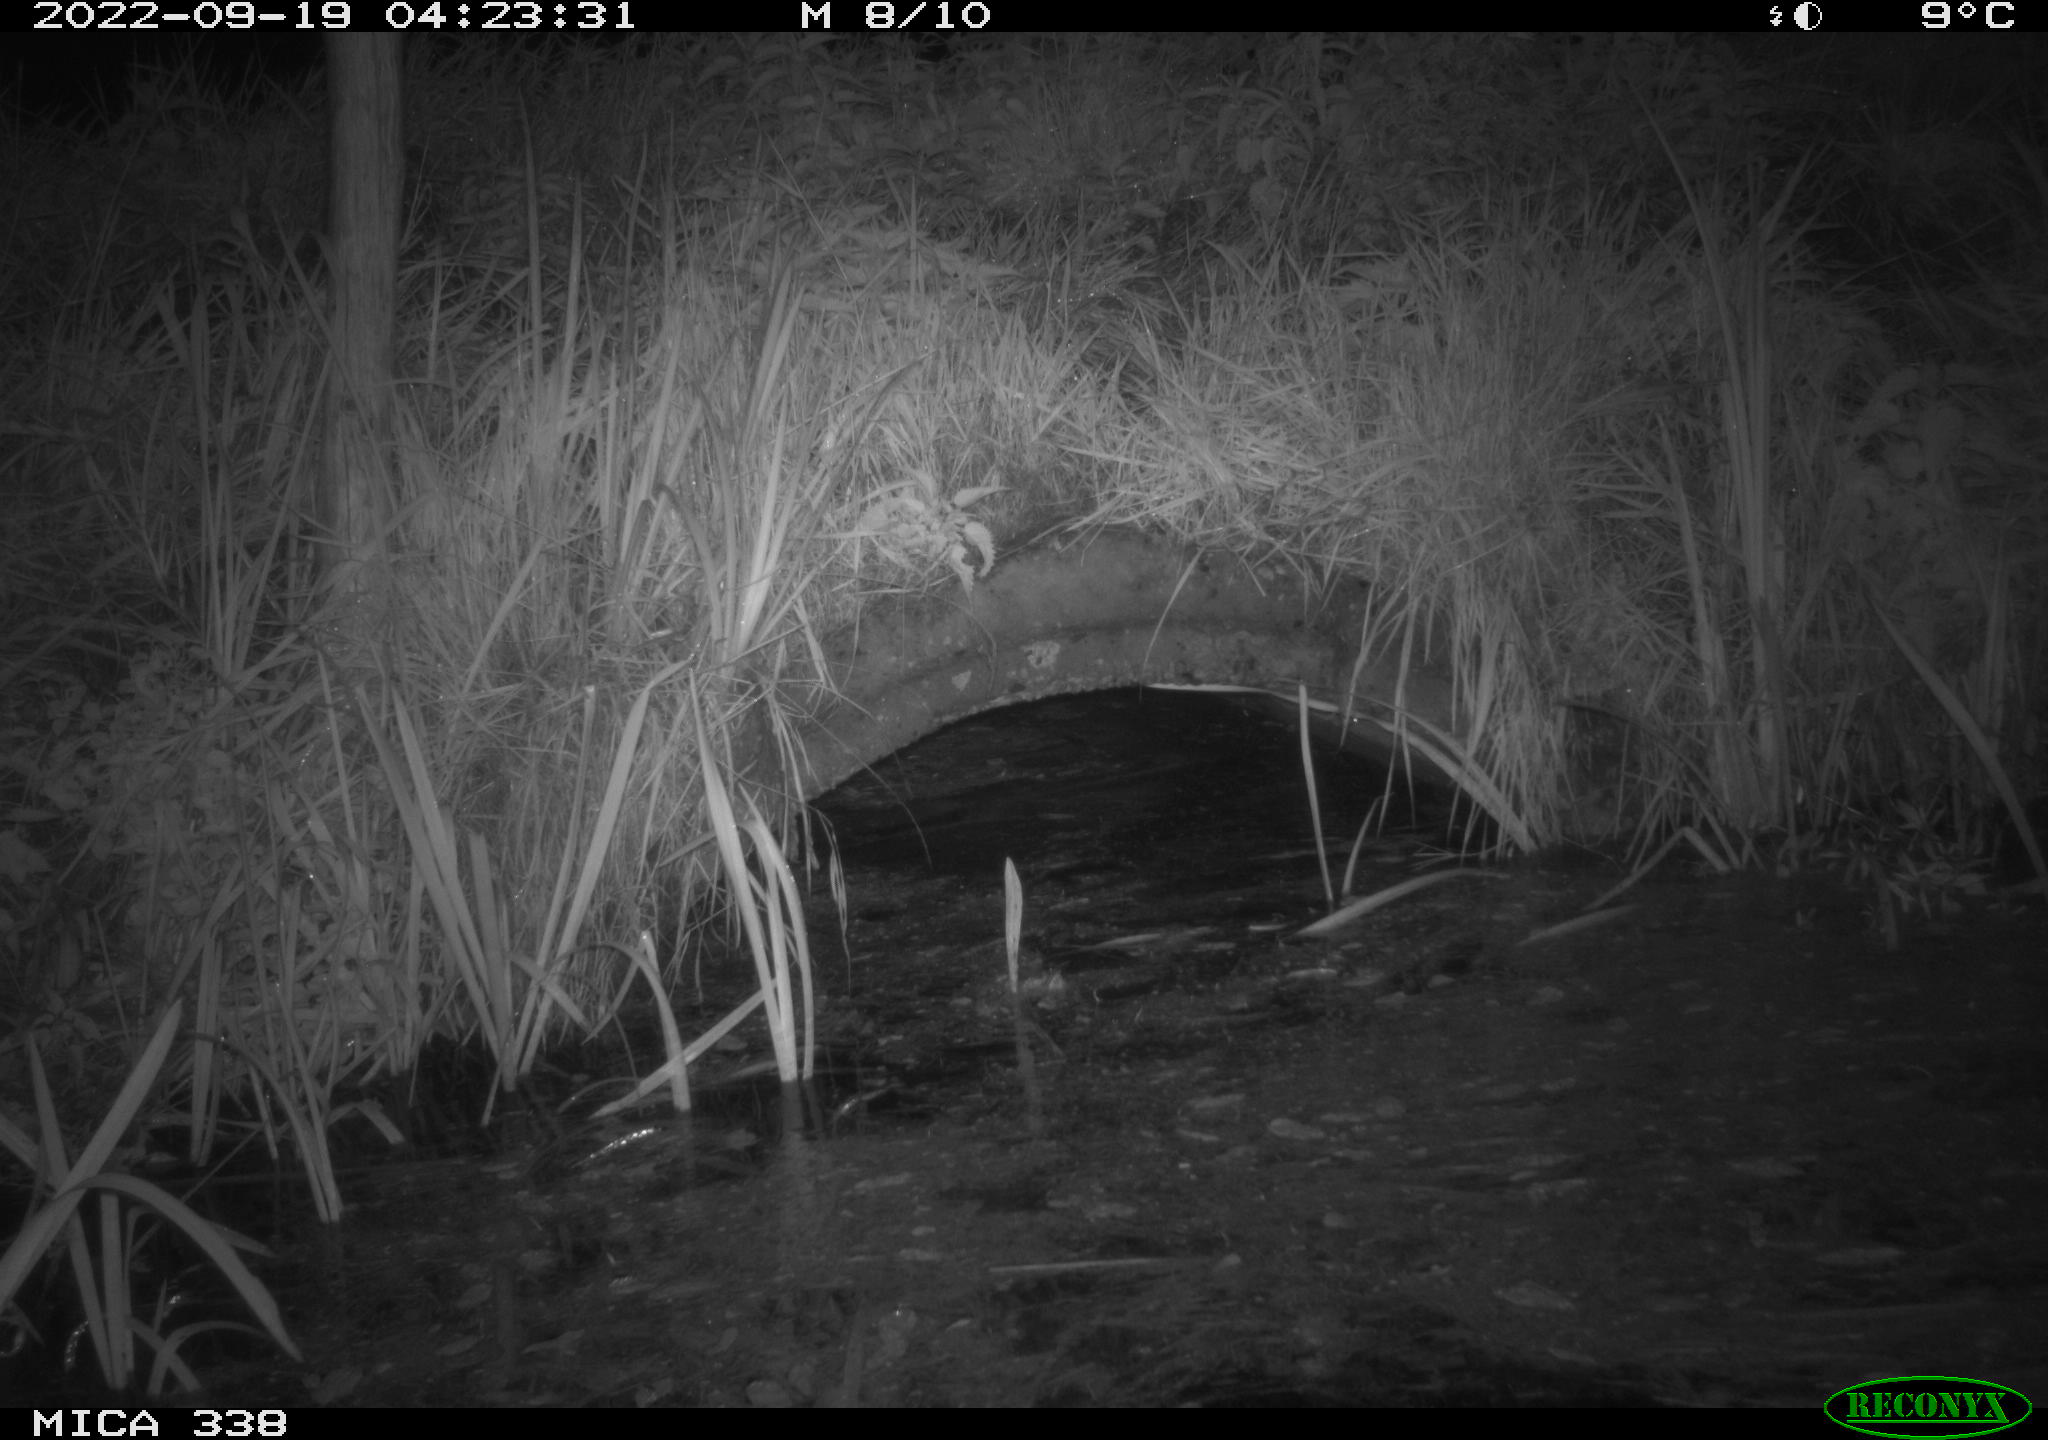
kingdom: Animalia
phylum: Chordata
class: Mammalia
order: Rodentia
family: Muridae
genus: Rattus
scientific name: Rattus norvegicus
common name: Brown rat
